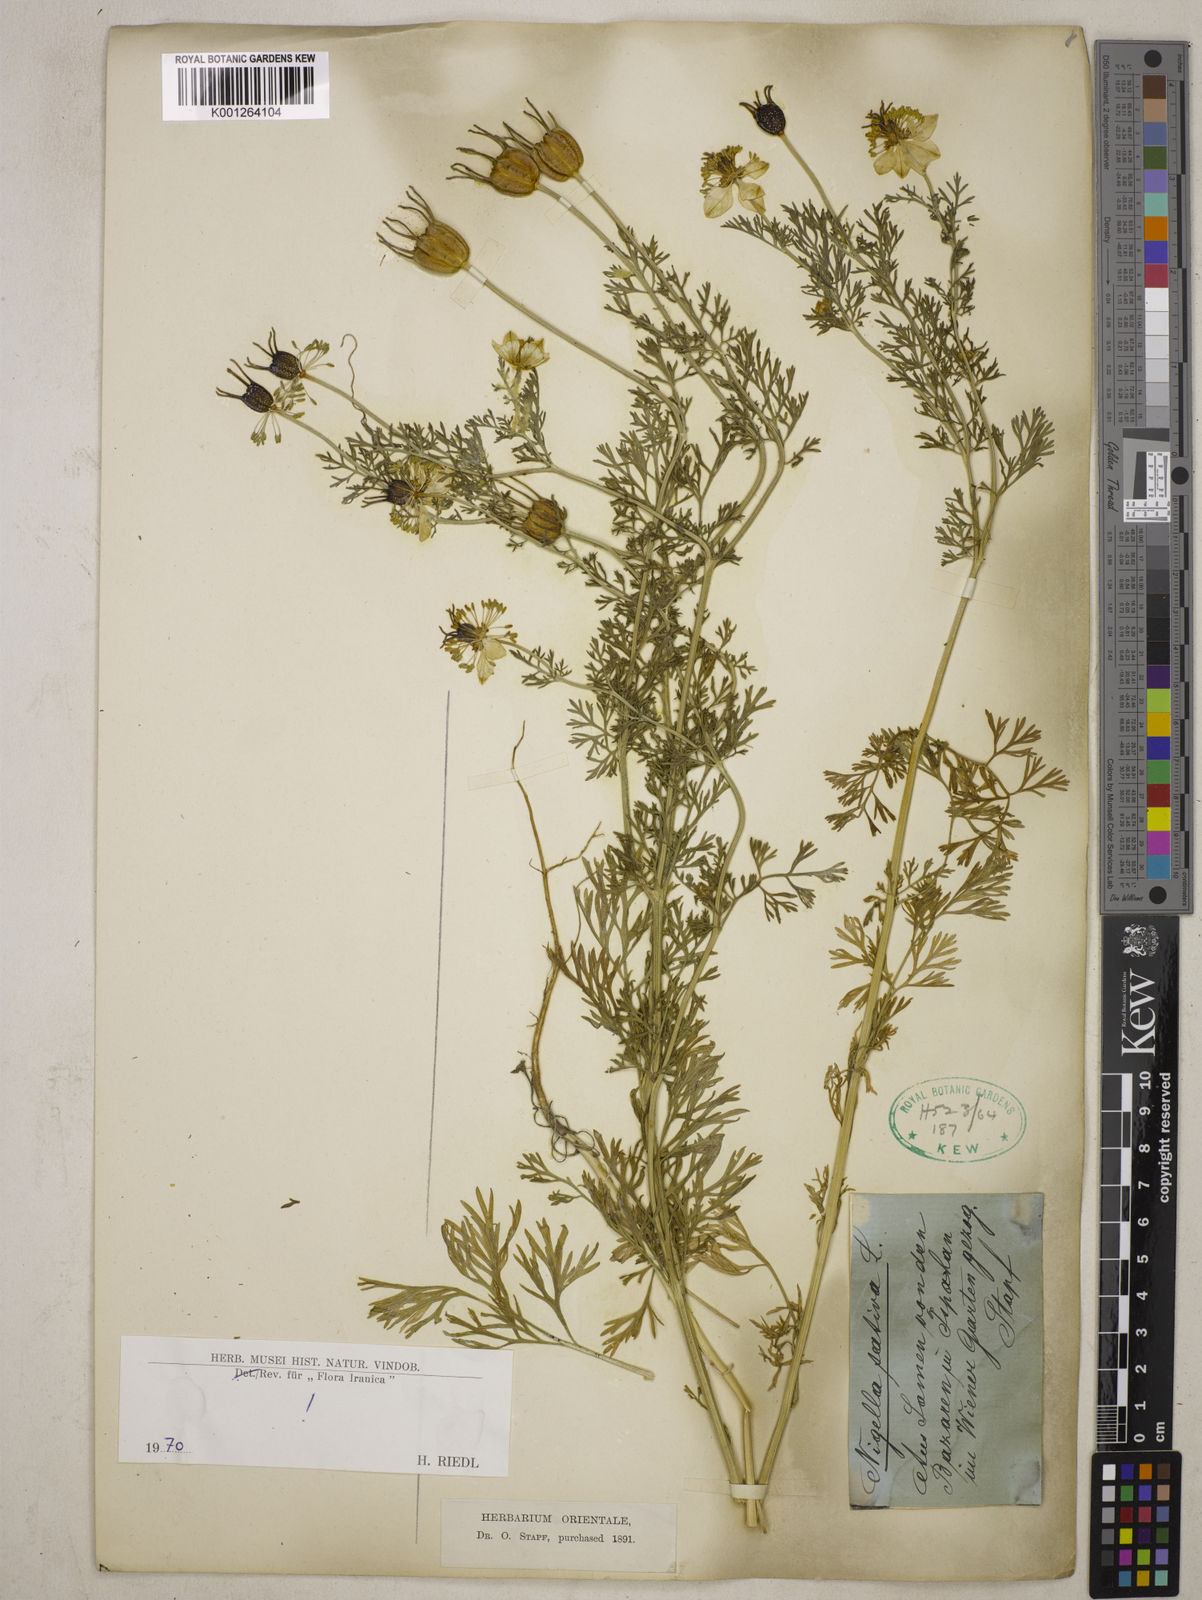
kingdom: Plantae
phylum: Tracheophyta
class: Magnoliopsida
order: Ranunculales
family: Ranunculaceae
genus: Nigella
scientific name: Nigella sativa
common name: Black-cumin
